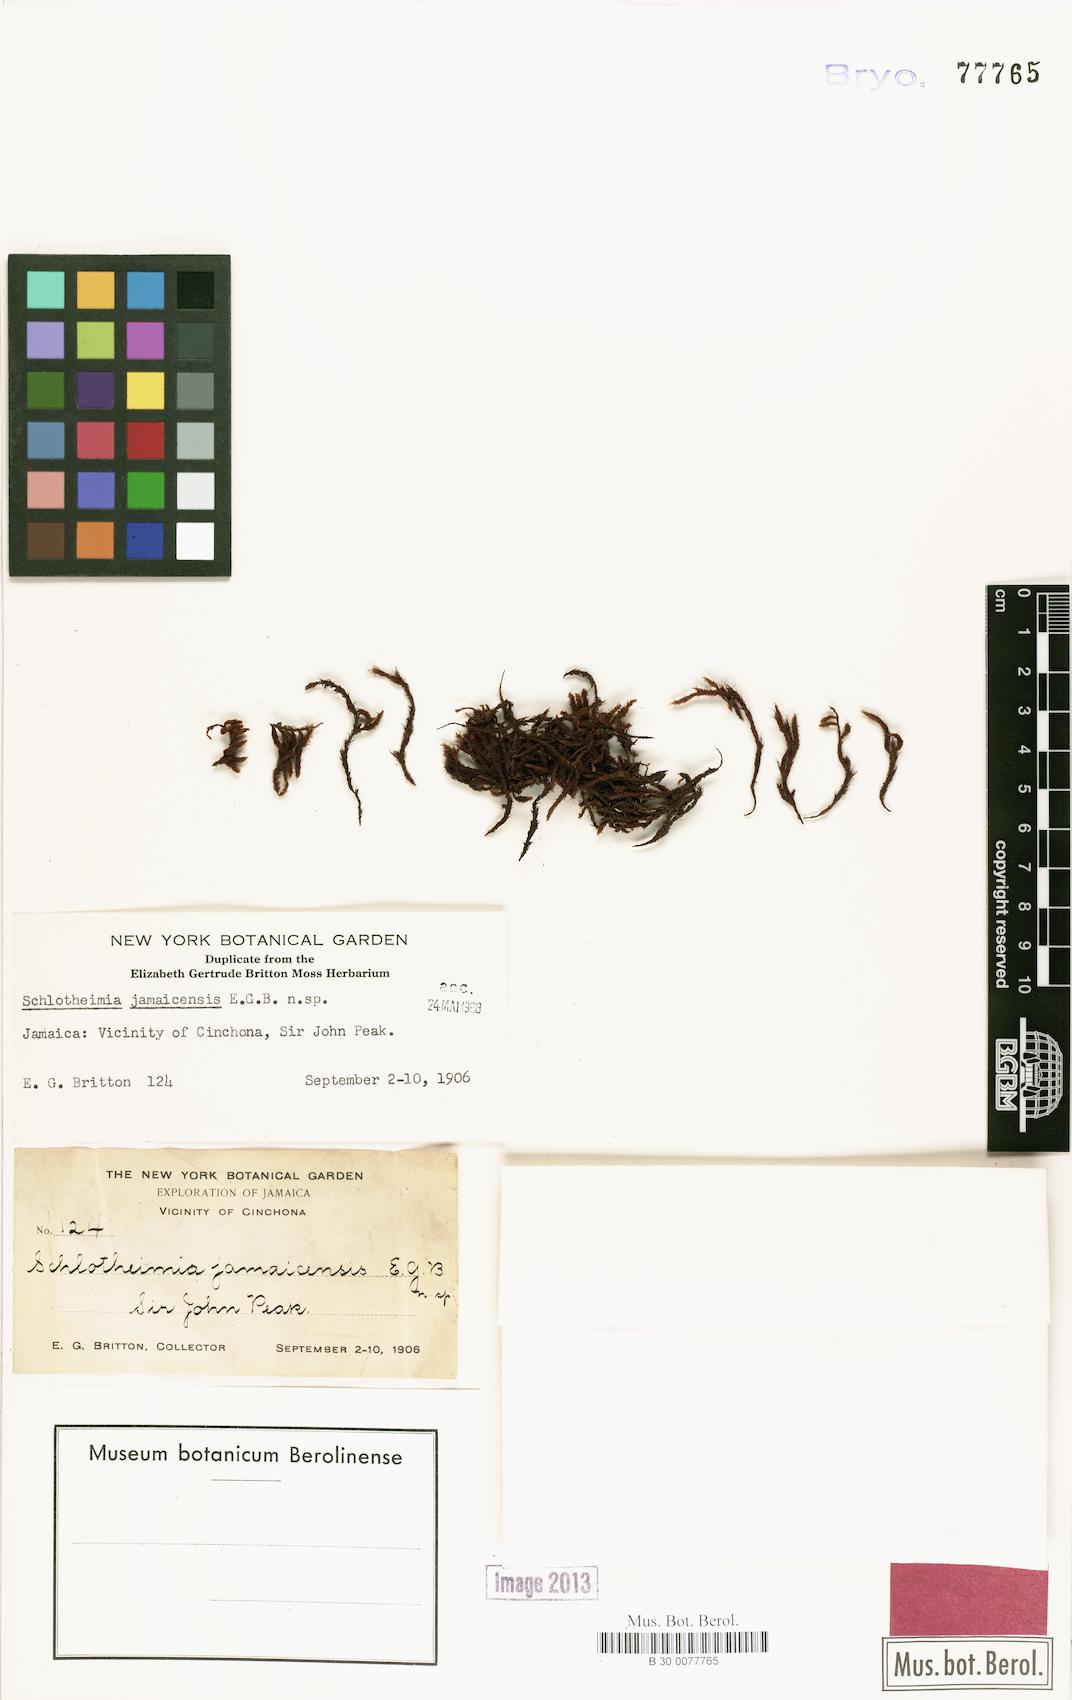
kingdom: Plantae
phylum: Bryophyta
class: Bryopsida
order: Orthotrichales
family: Orthotrichaceae
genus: Schlotheimia
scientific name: Schlotheimia
